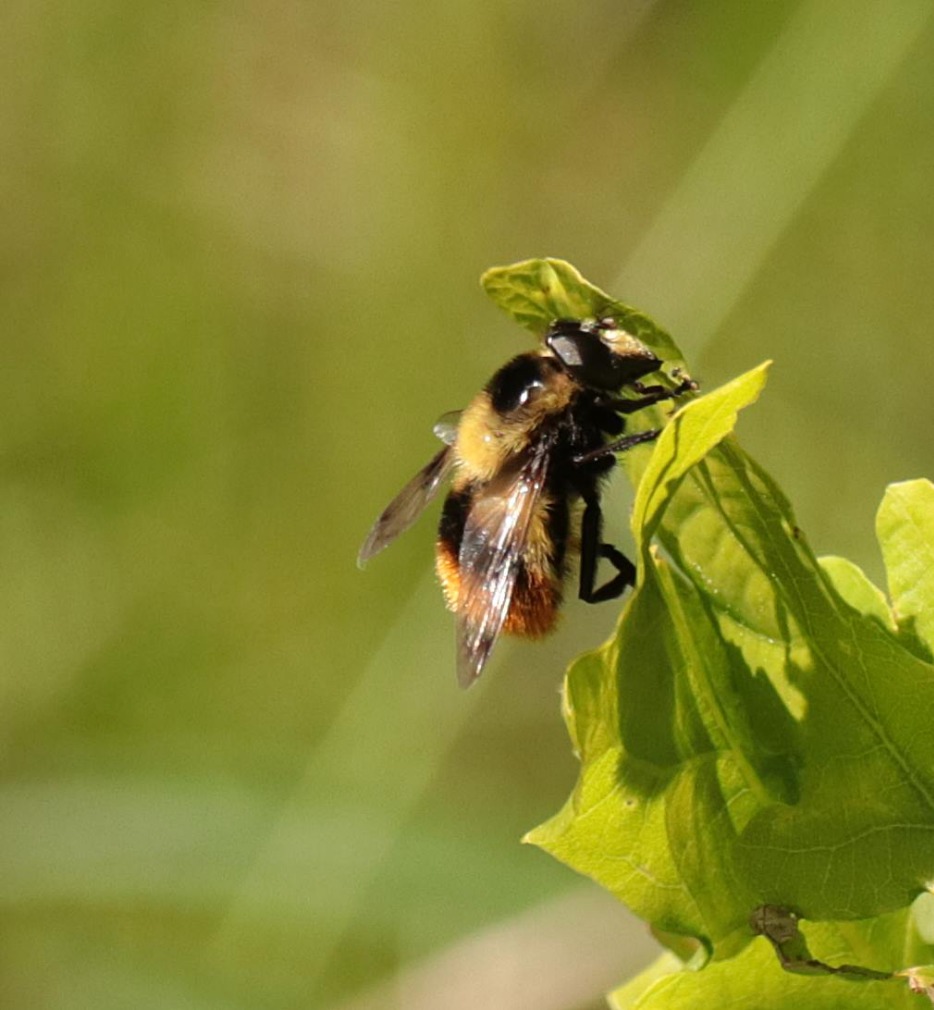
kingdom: Animalia
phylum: Arthropoda
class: Insecta
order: Diptera
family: Syrphidae
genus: Volucella
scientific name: Volucella bombylans
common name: Foranderlig humlesvirreflue
